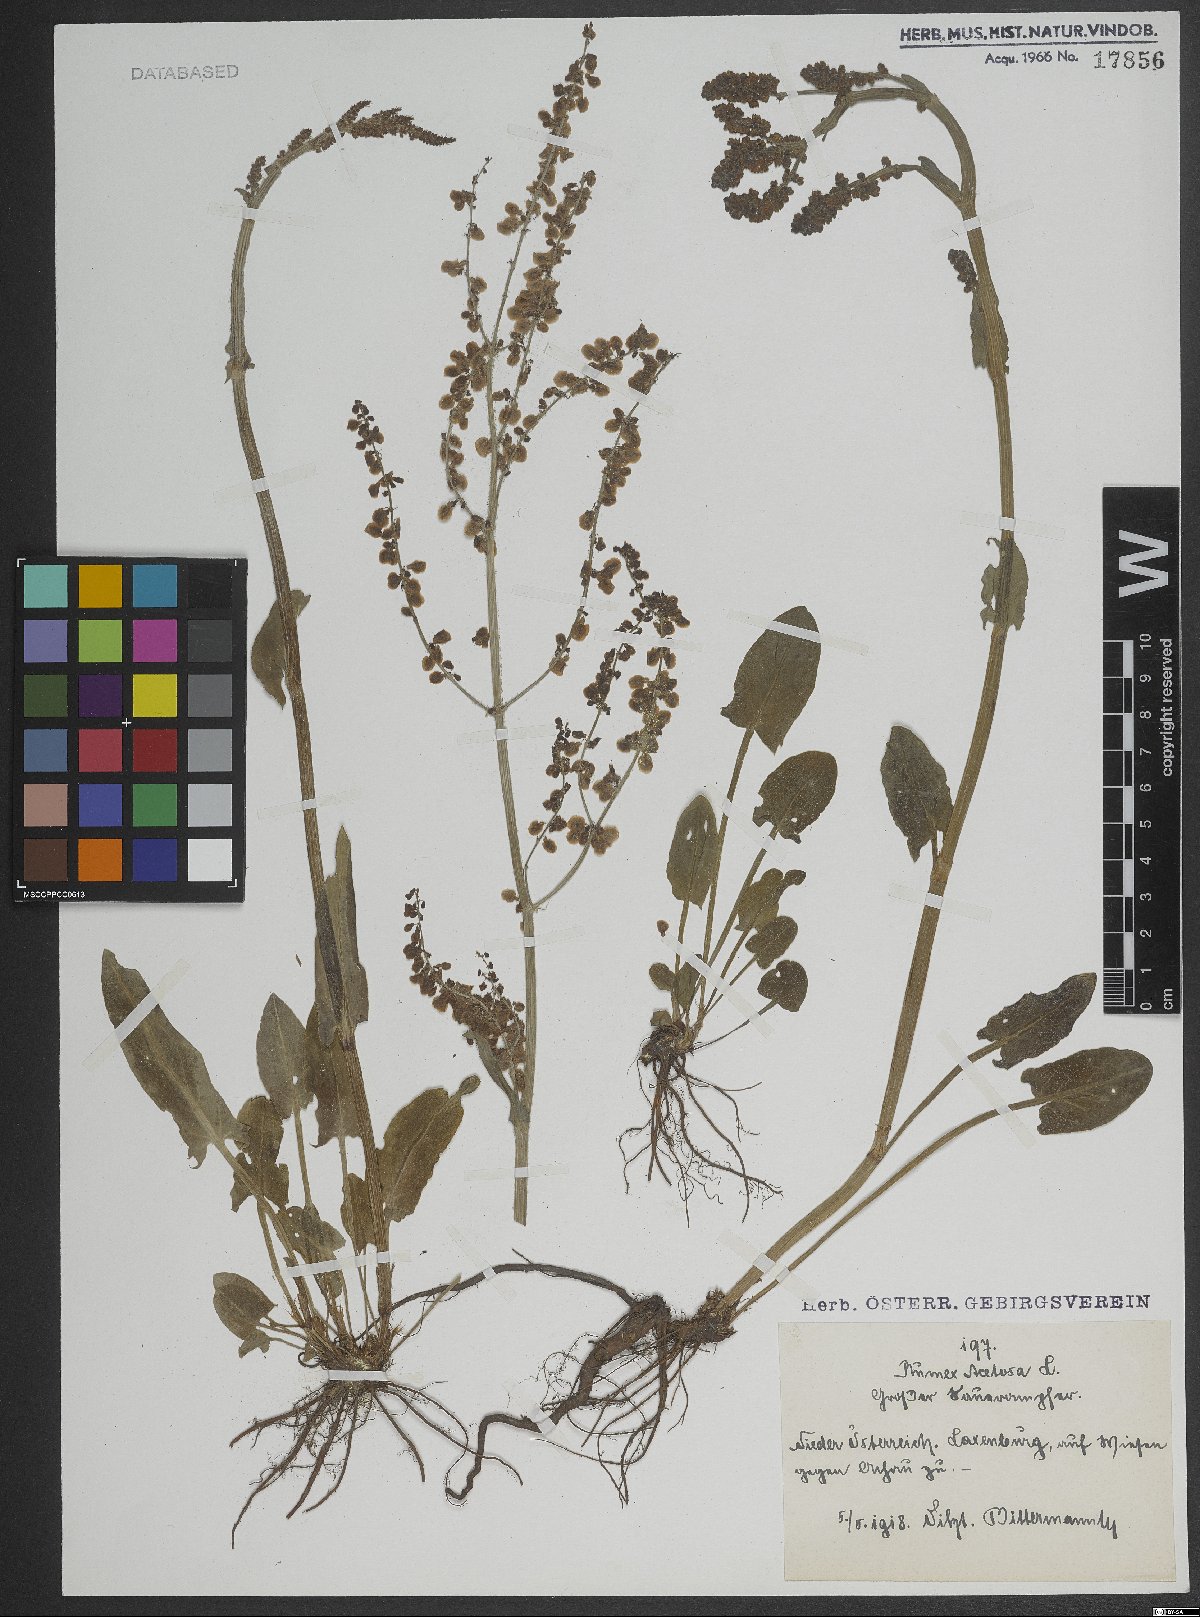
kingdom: Plantae
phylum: Tracheophyta
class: Magnoliopsida
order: Caryophyllales
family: Polygonaceae
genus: Rumex
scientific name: Rumex acetosa
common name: Garden sorrel
